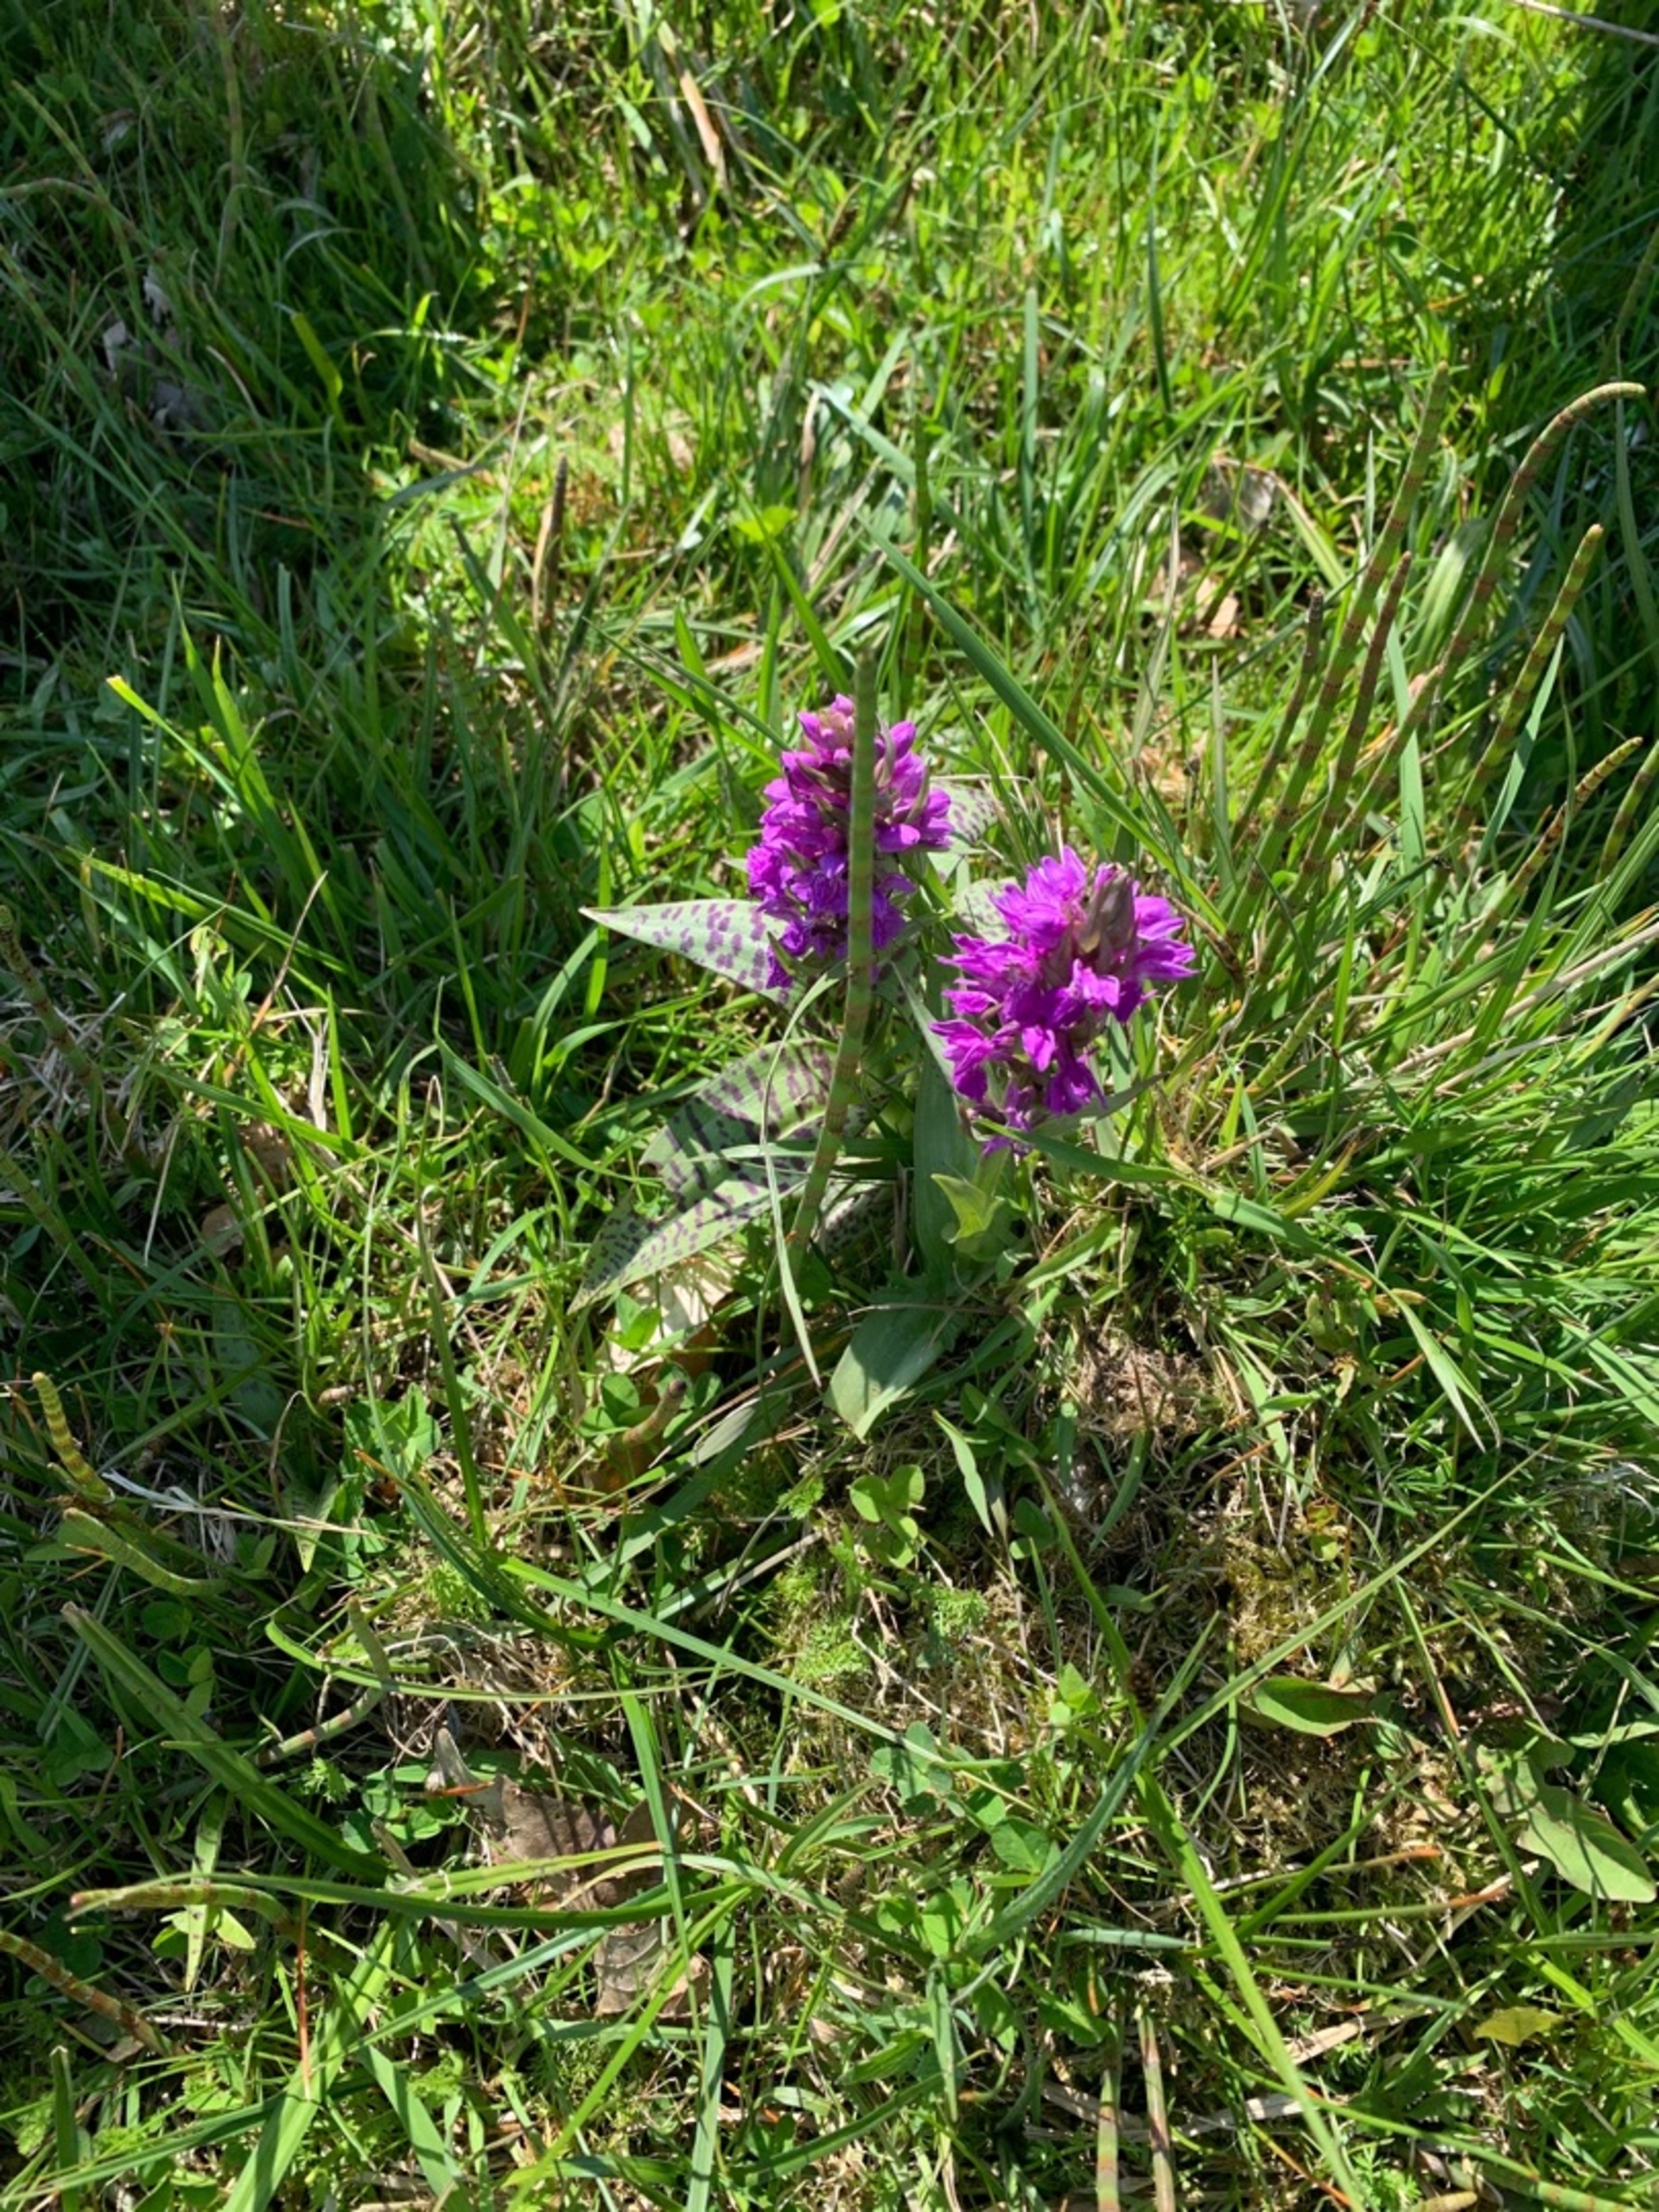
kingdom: Plantae
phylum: Tracheophyta
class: Liliopsida
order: Asparagales
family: Orchidaceae
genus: Dactylorhiza
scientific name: Dactylorhiza majalis
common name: Maj-gøgeurt
